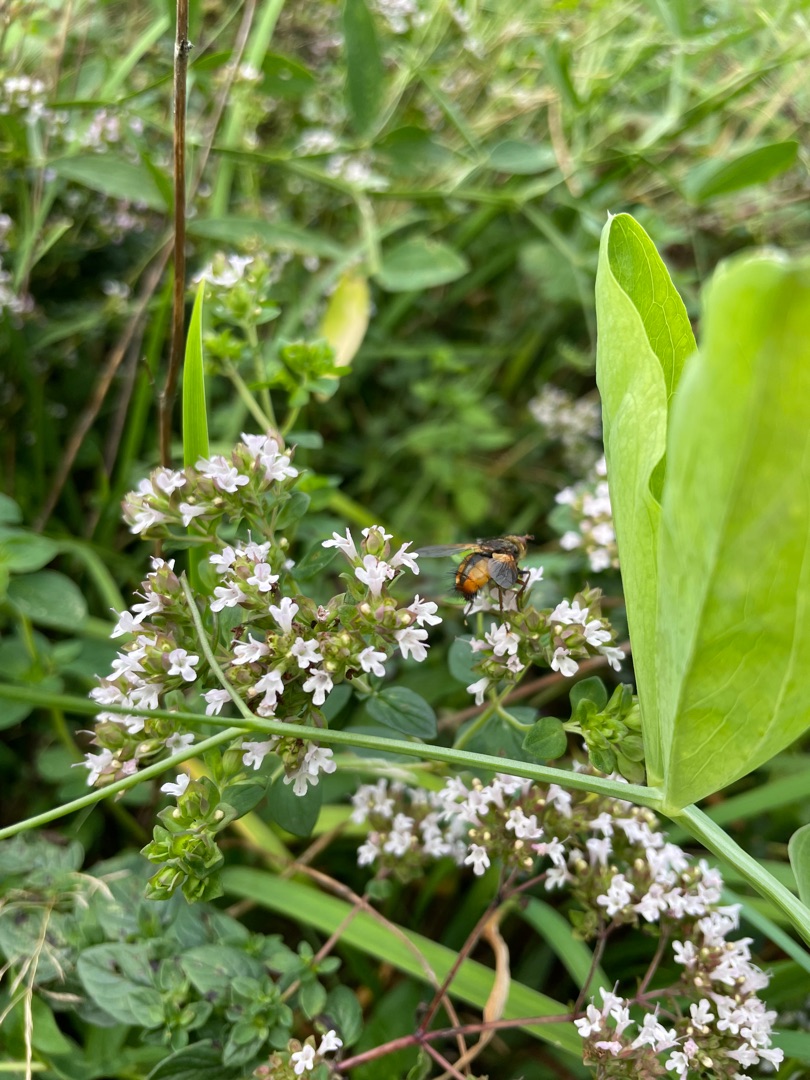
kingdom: Animalia
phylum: Arthropoda
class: Insecta
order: Diptera
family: Tachinidae
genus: Tachina
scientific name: Tachina fera
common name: Mellemfluen oskar
